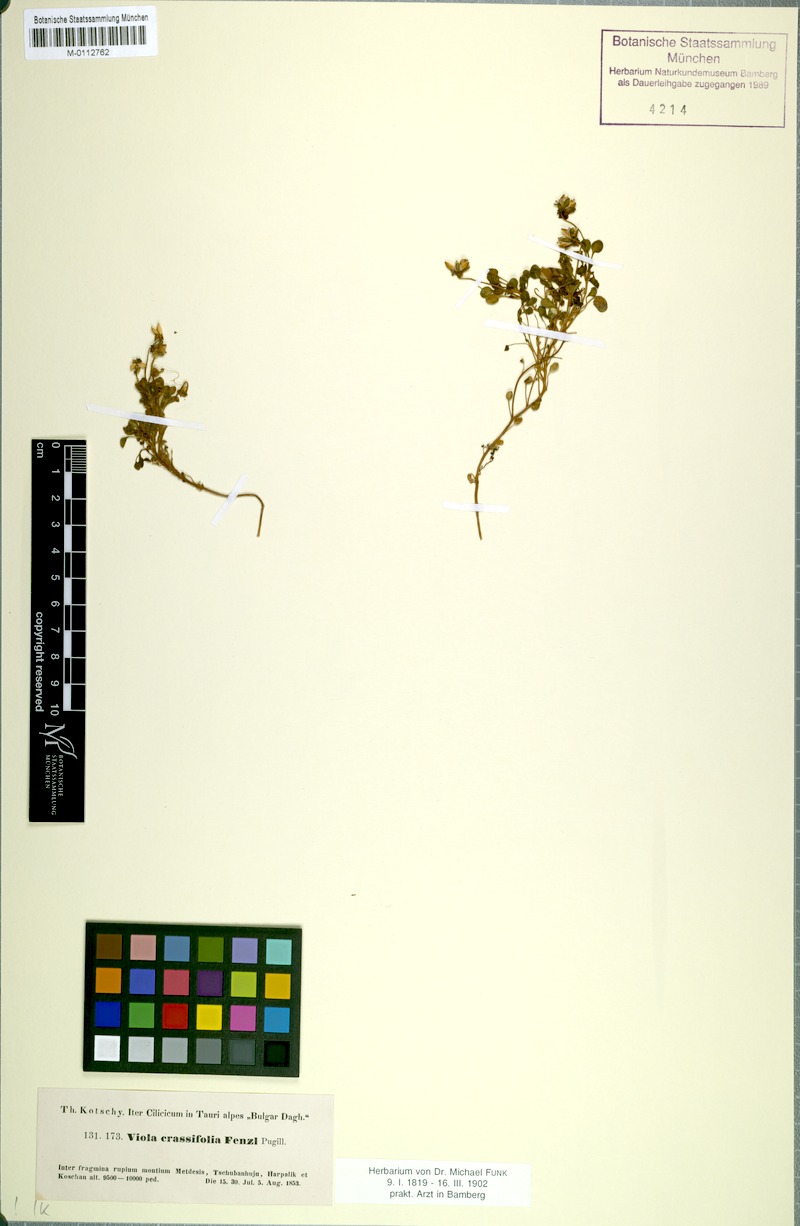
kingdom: Plantae
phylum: Tracheophyta
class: Magnoliopsida
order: Malpighiales
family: Violaceae
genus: Viola
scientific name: Viola crassifolia
